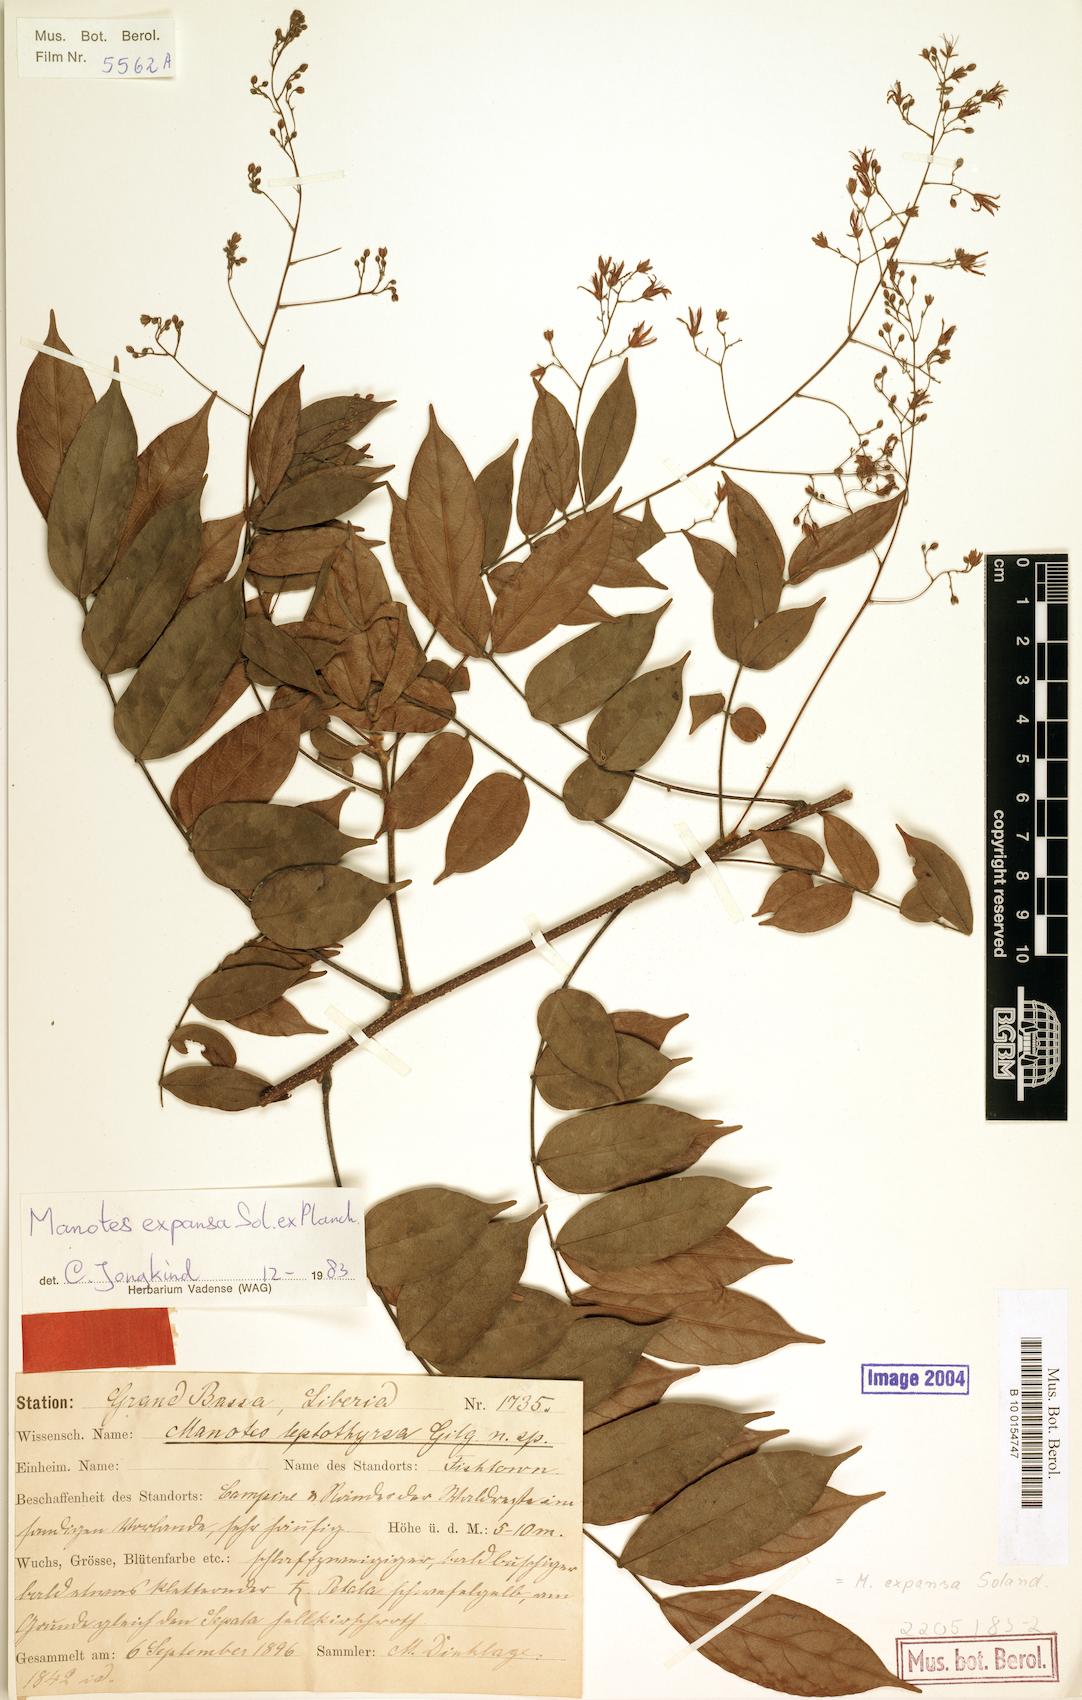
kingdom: Plantae
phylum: Tracheophyta
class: Magnoliopsida
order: Oxalidales
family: Connaraceae
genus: Manotes
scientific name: Manotes expansa
